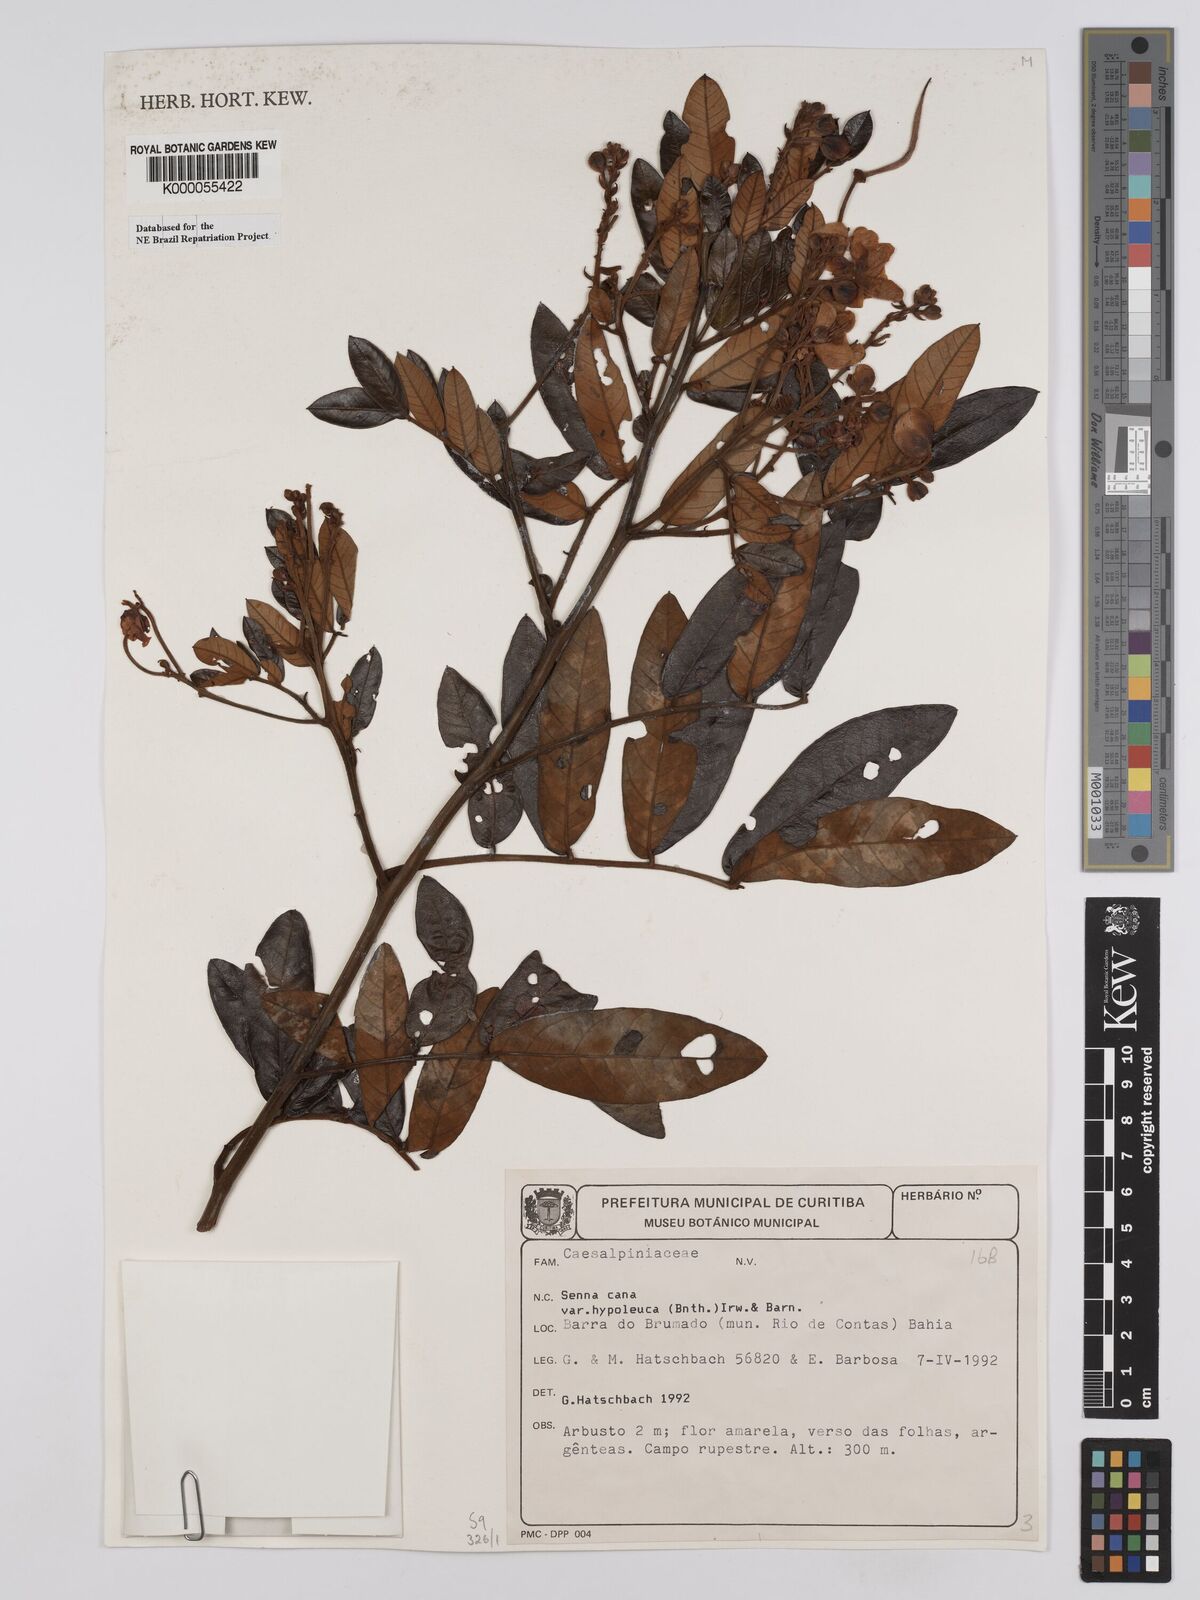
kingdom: Plantae
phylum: Tracheophyta
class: Magnoliopsida
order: Fabales
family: Fabaceae
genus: Senna
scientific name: Senna cana
